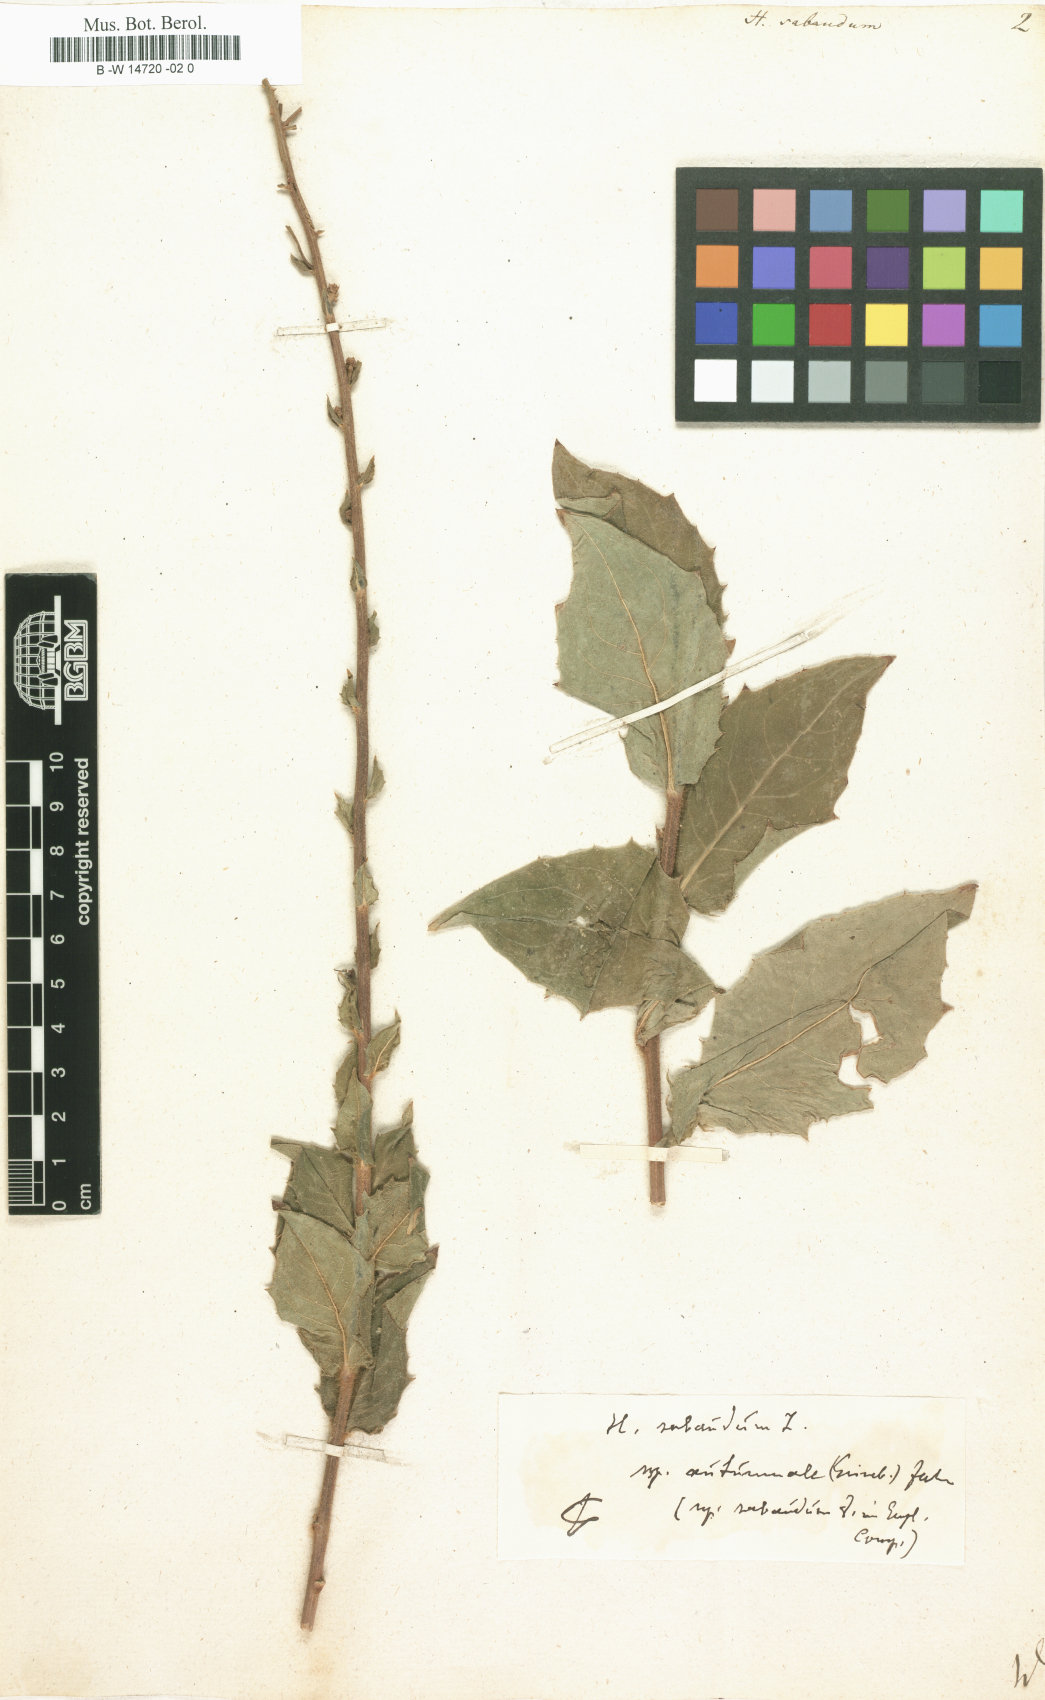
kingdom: Plantae
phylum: Tracheophyta
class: Magnoliopsida
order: Asterales
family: Asteraceae
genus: Hieracium
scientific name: Hieracium sabaudum
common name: New england hawkweed
